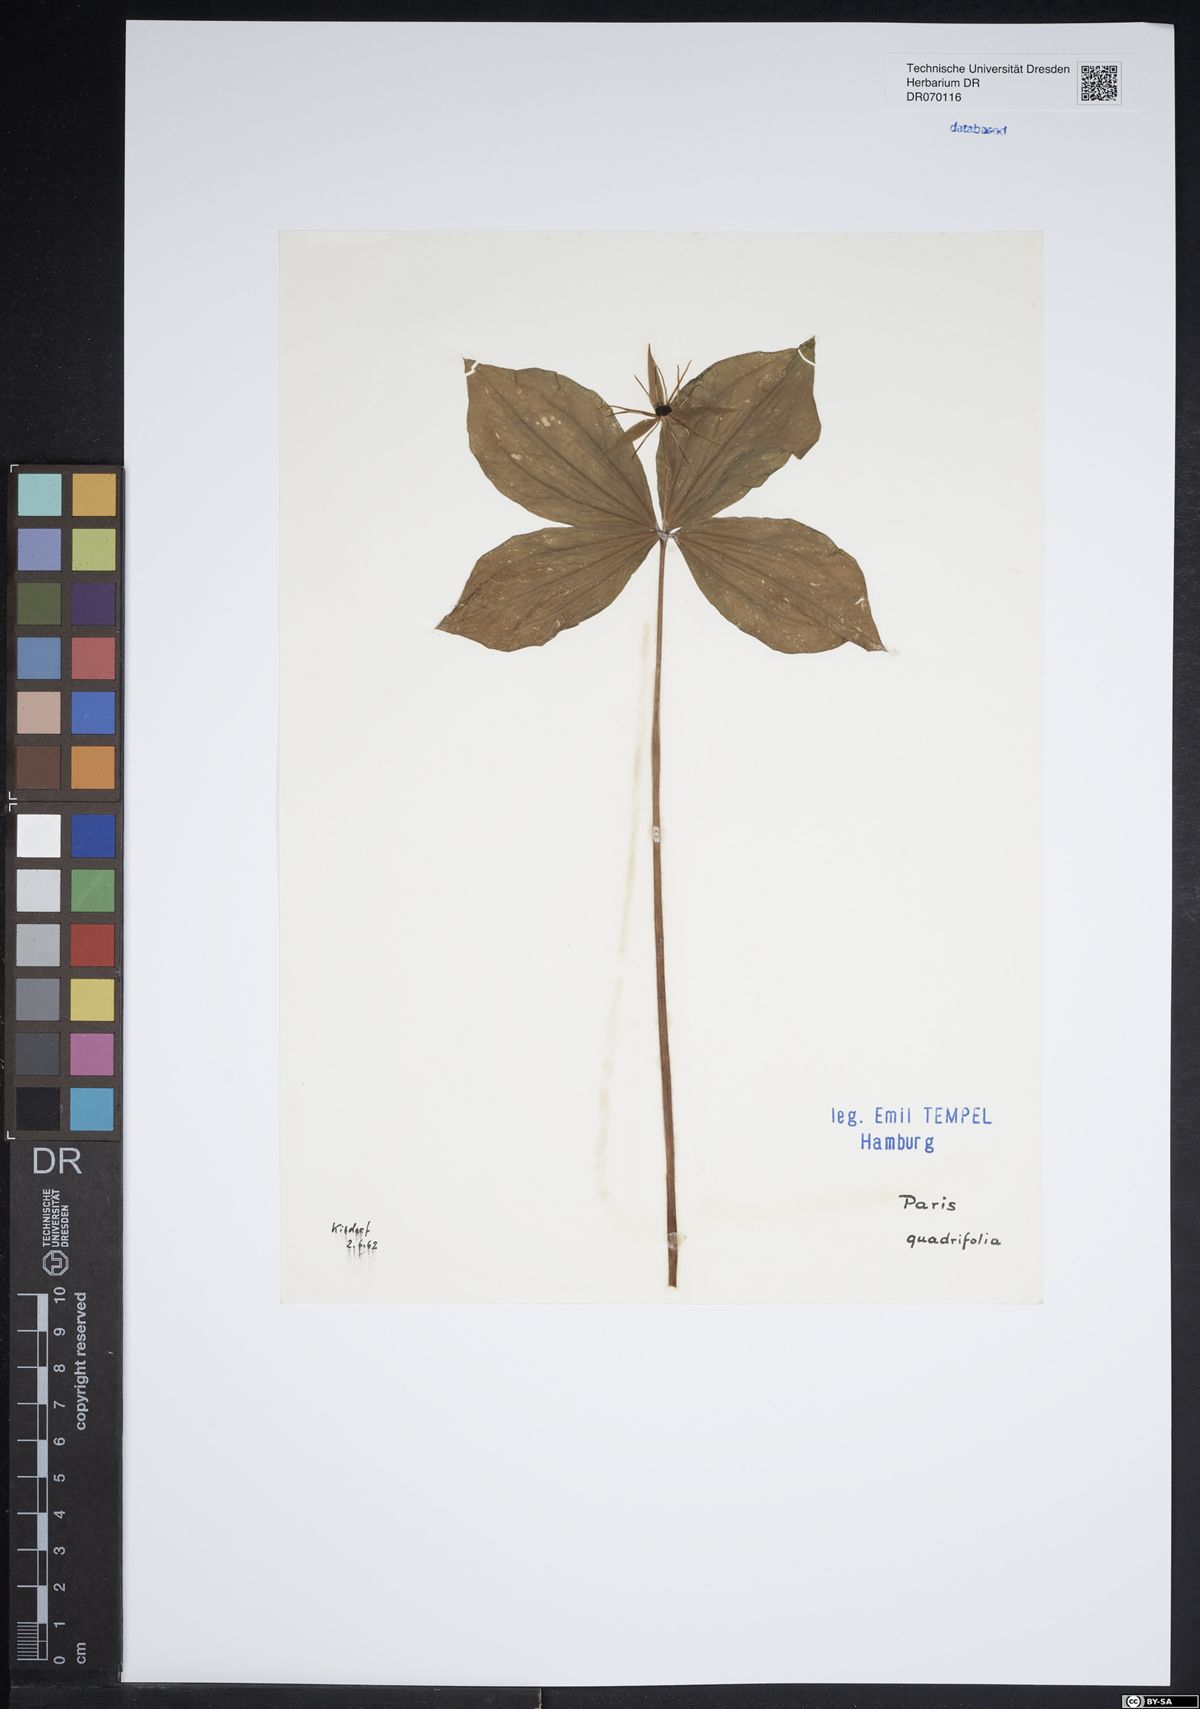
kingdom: Plantae
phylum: Tracheophyta
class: Liliopsida
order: Liliales
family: Melanthiaceae
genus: Paris
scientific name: Paris quadrifolia
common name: Herb-paris
